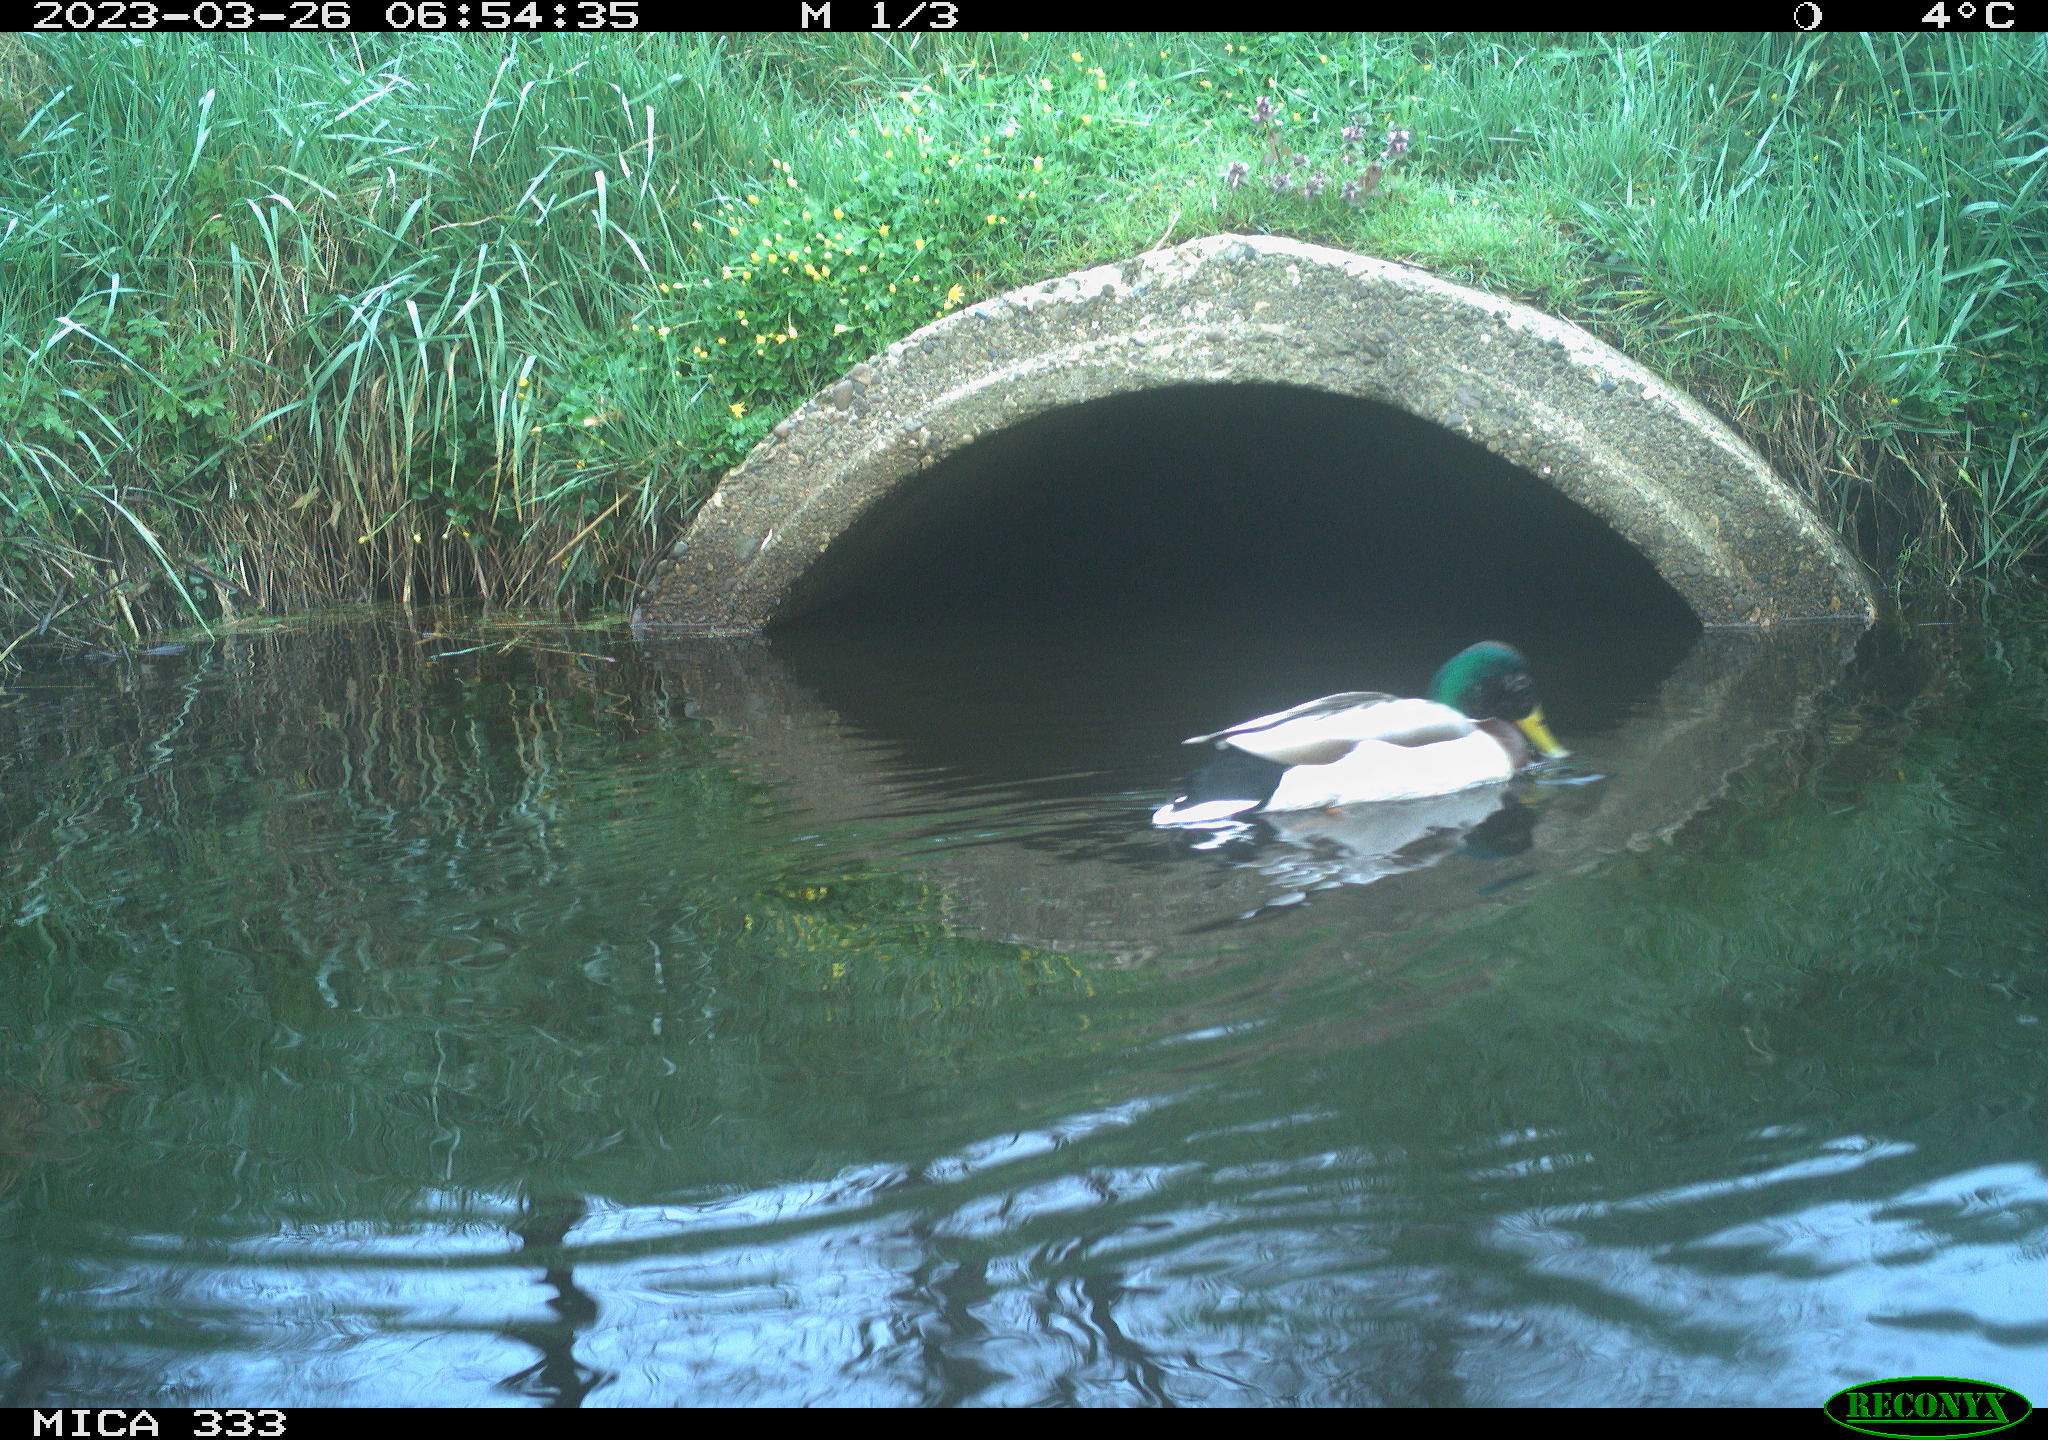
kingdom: Animalia
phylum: Chordata
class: Aves
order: Anseriformes
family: Anatidae
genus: Anas
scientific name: Anas platyrhynchos
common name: Mallard
